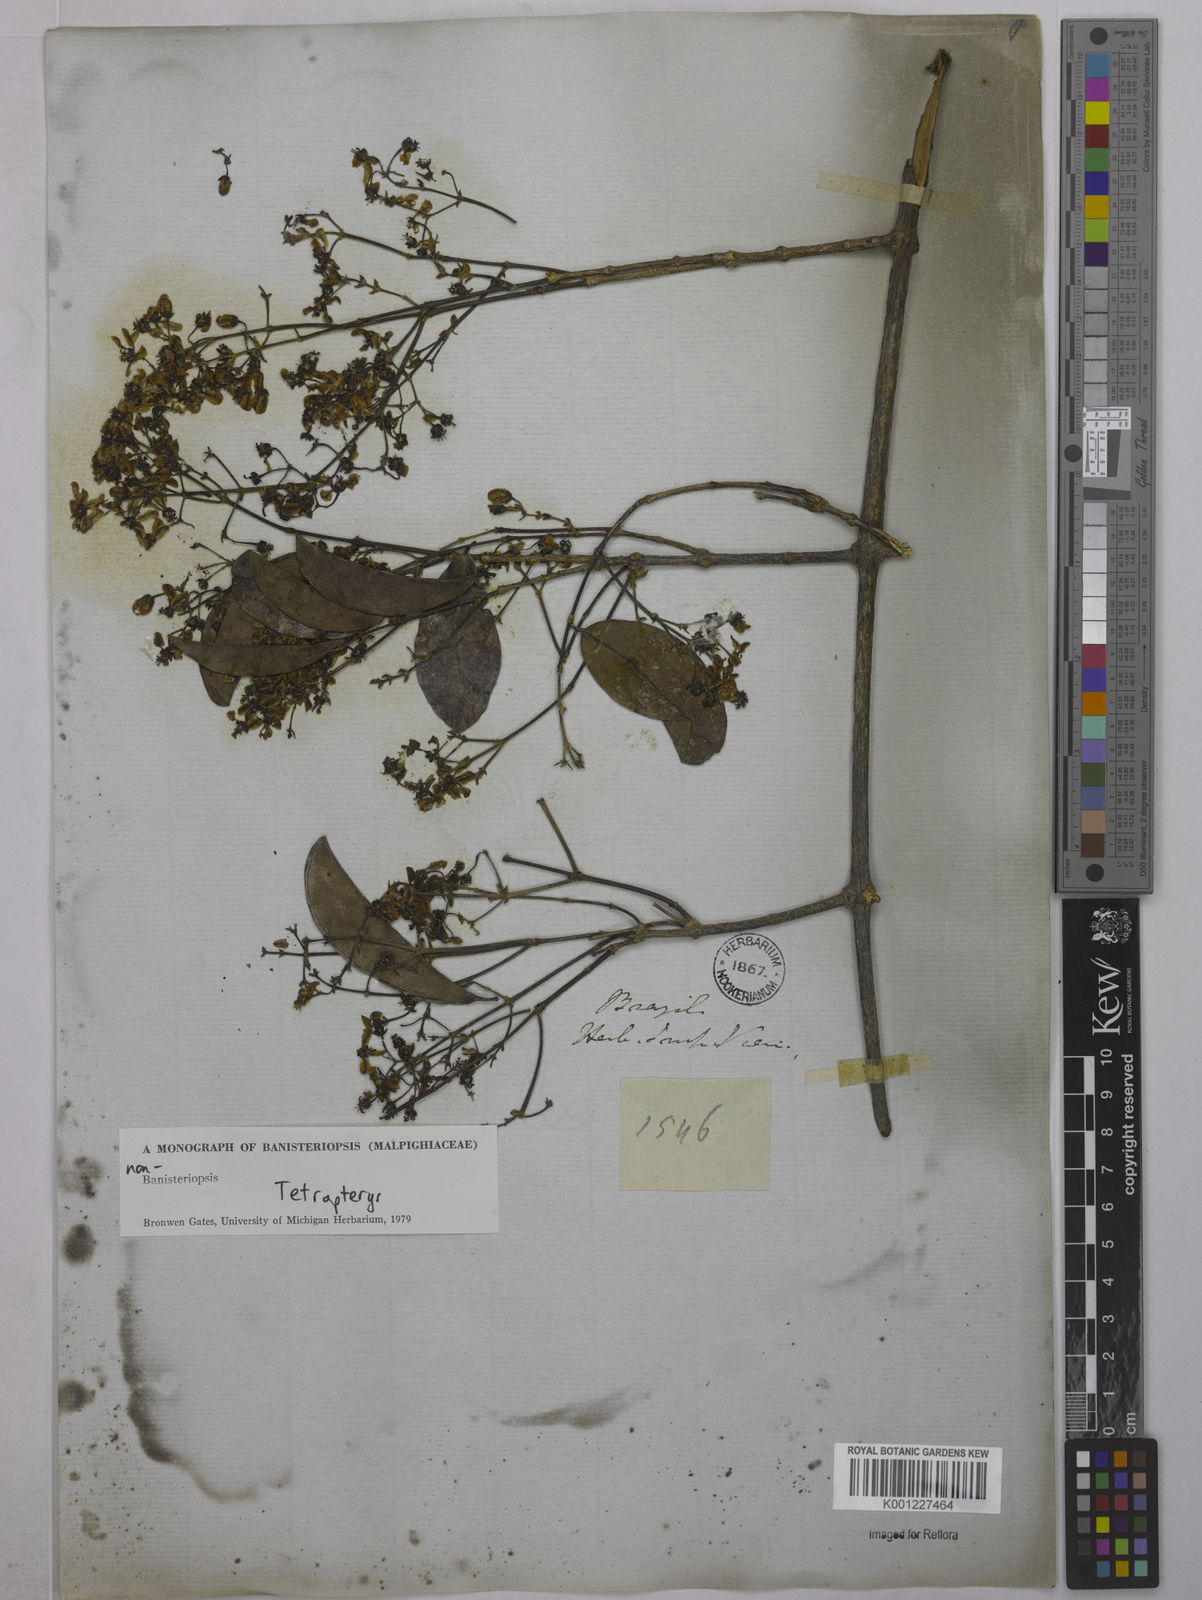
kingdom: Plantae
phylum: Tracheophyta
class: Magnoliopsida
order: Malpighiales
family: Malpighiaceae
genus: Tetrapterys
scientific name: Tetrapterys
